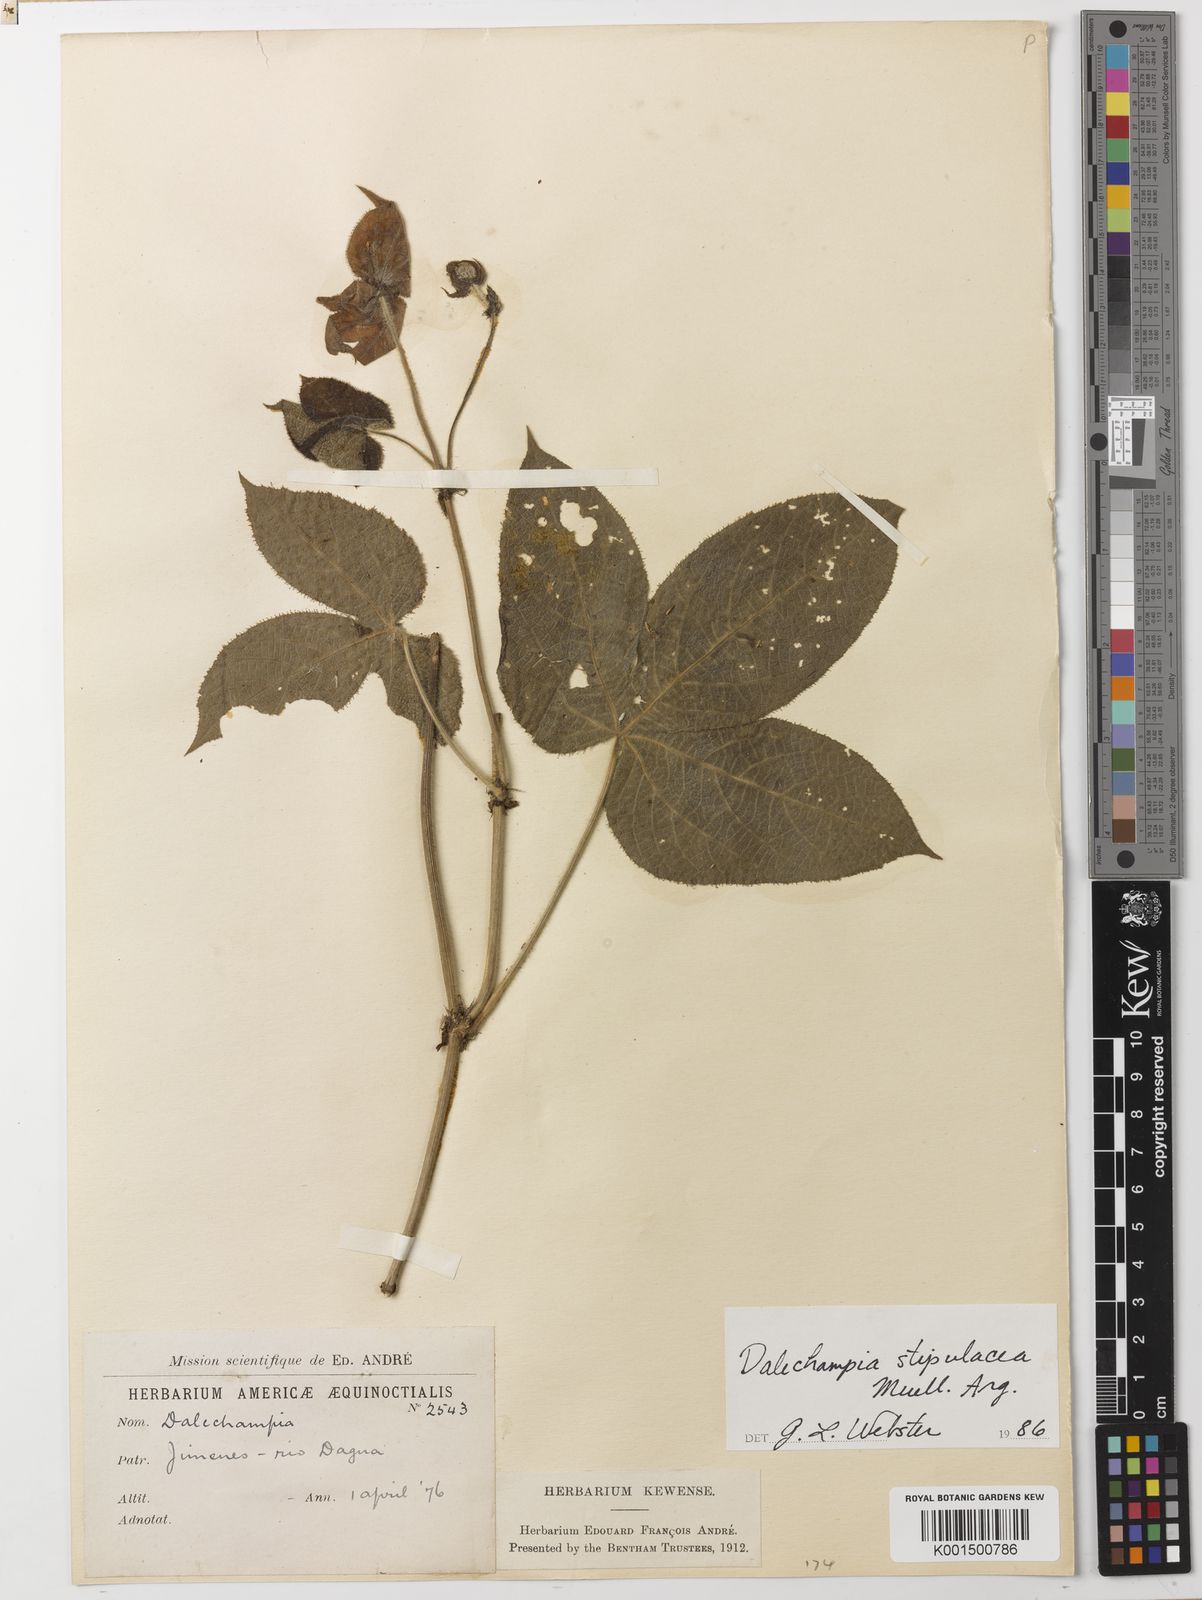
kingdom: Plantae
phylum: Tracheophyta
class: Magnoliopsida
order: Malpighiales
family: Euphorbiaceae
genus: Dalechampia
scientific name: Dalechampia stipulacea
